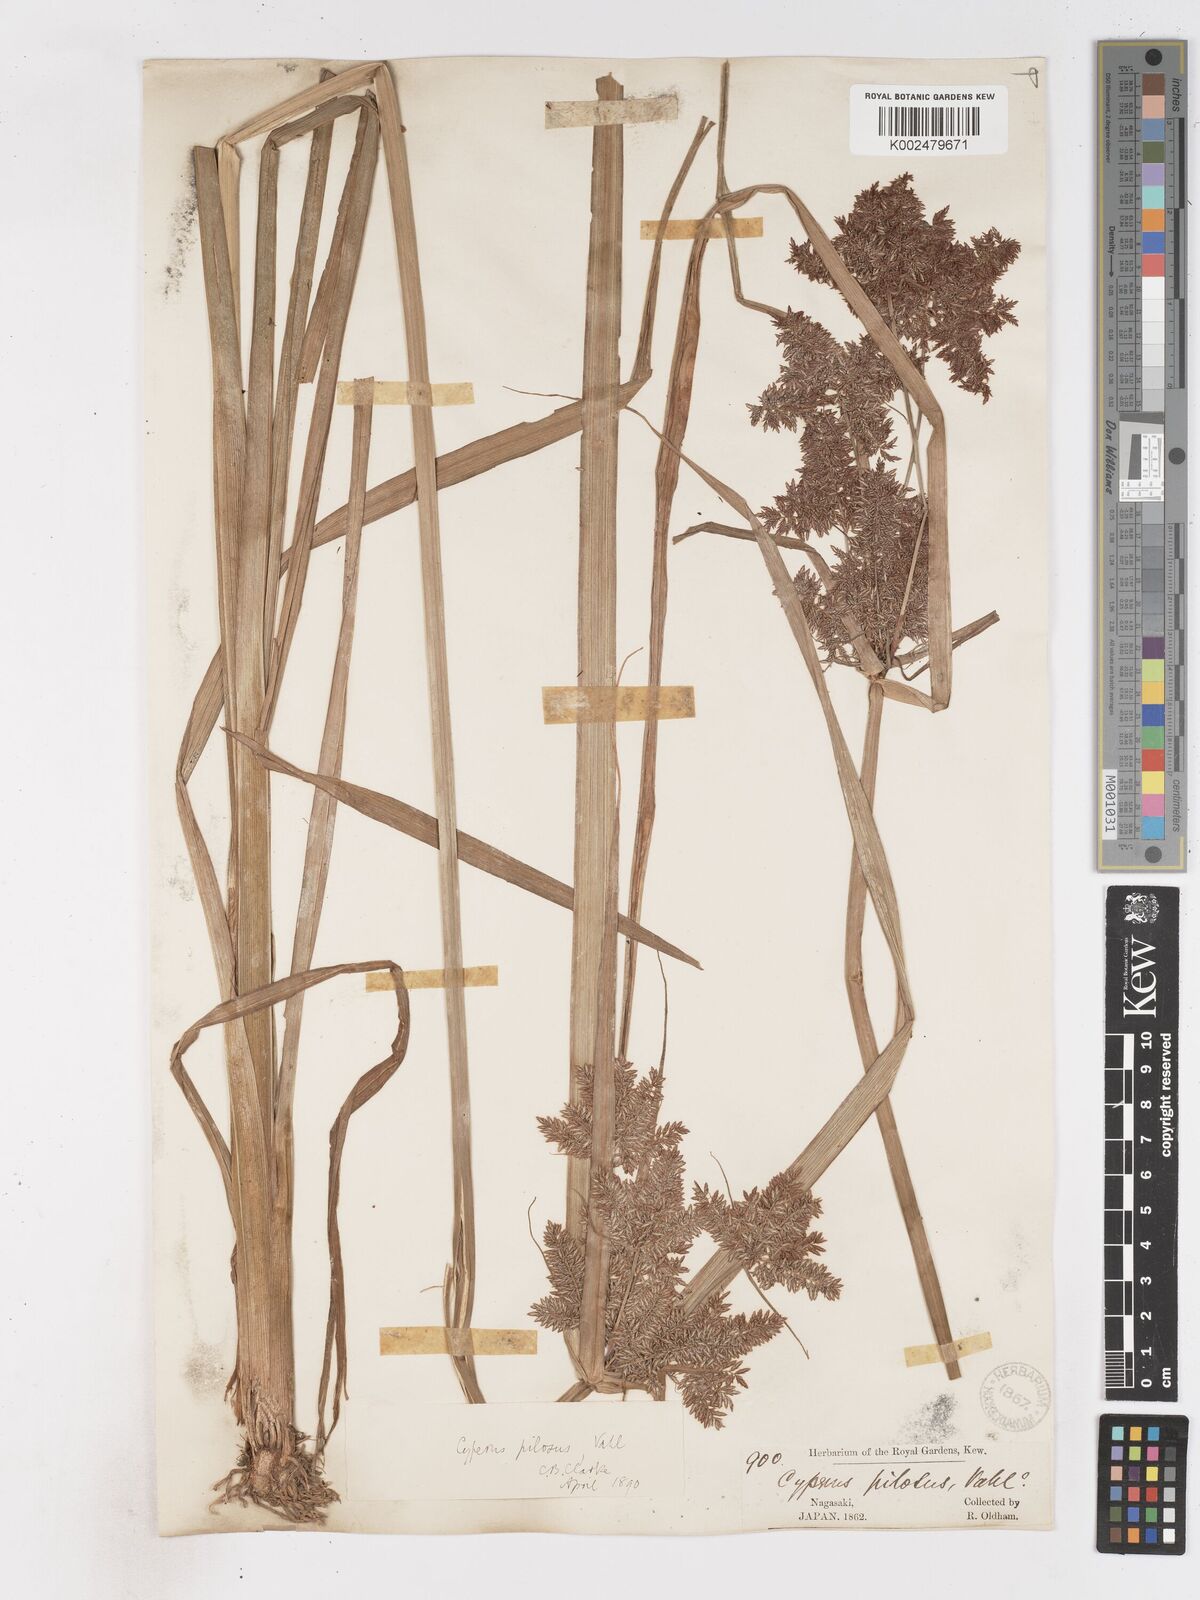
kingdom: Plantae
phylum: Tracheophyta
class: Liliopsida
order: Poales
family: Cyperaceae
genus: Cyperus
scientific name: Cyperus pilosus
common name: Fuzzy flatsedge
